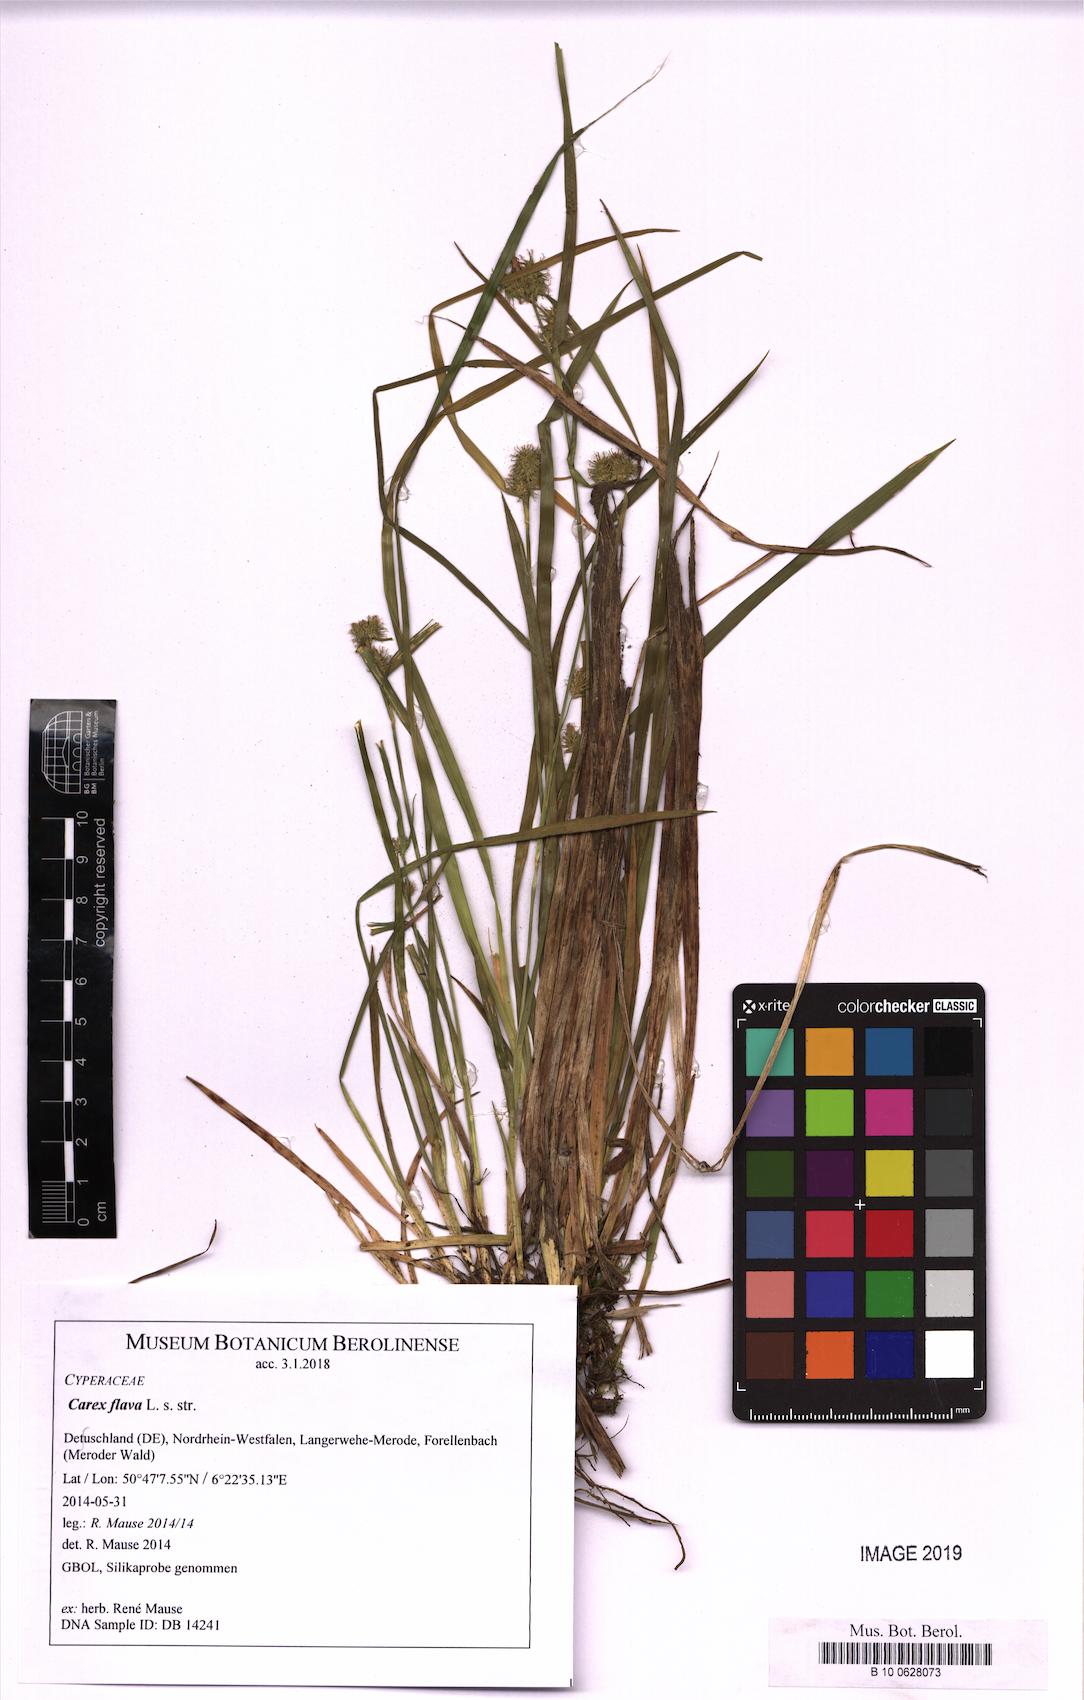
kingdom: Plantae
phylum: Tracheophyta
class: Liliopsida
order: Poales
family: Cyperaceae
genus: Carex
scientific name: Carex flava
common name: Large yellow-sedge
